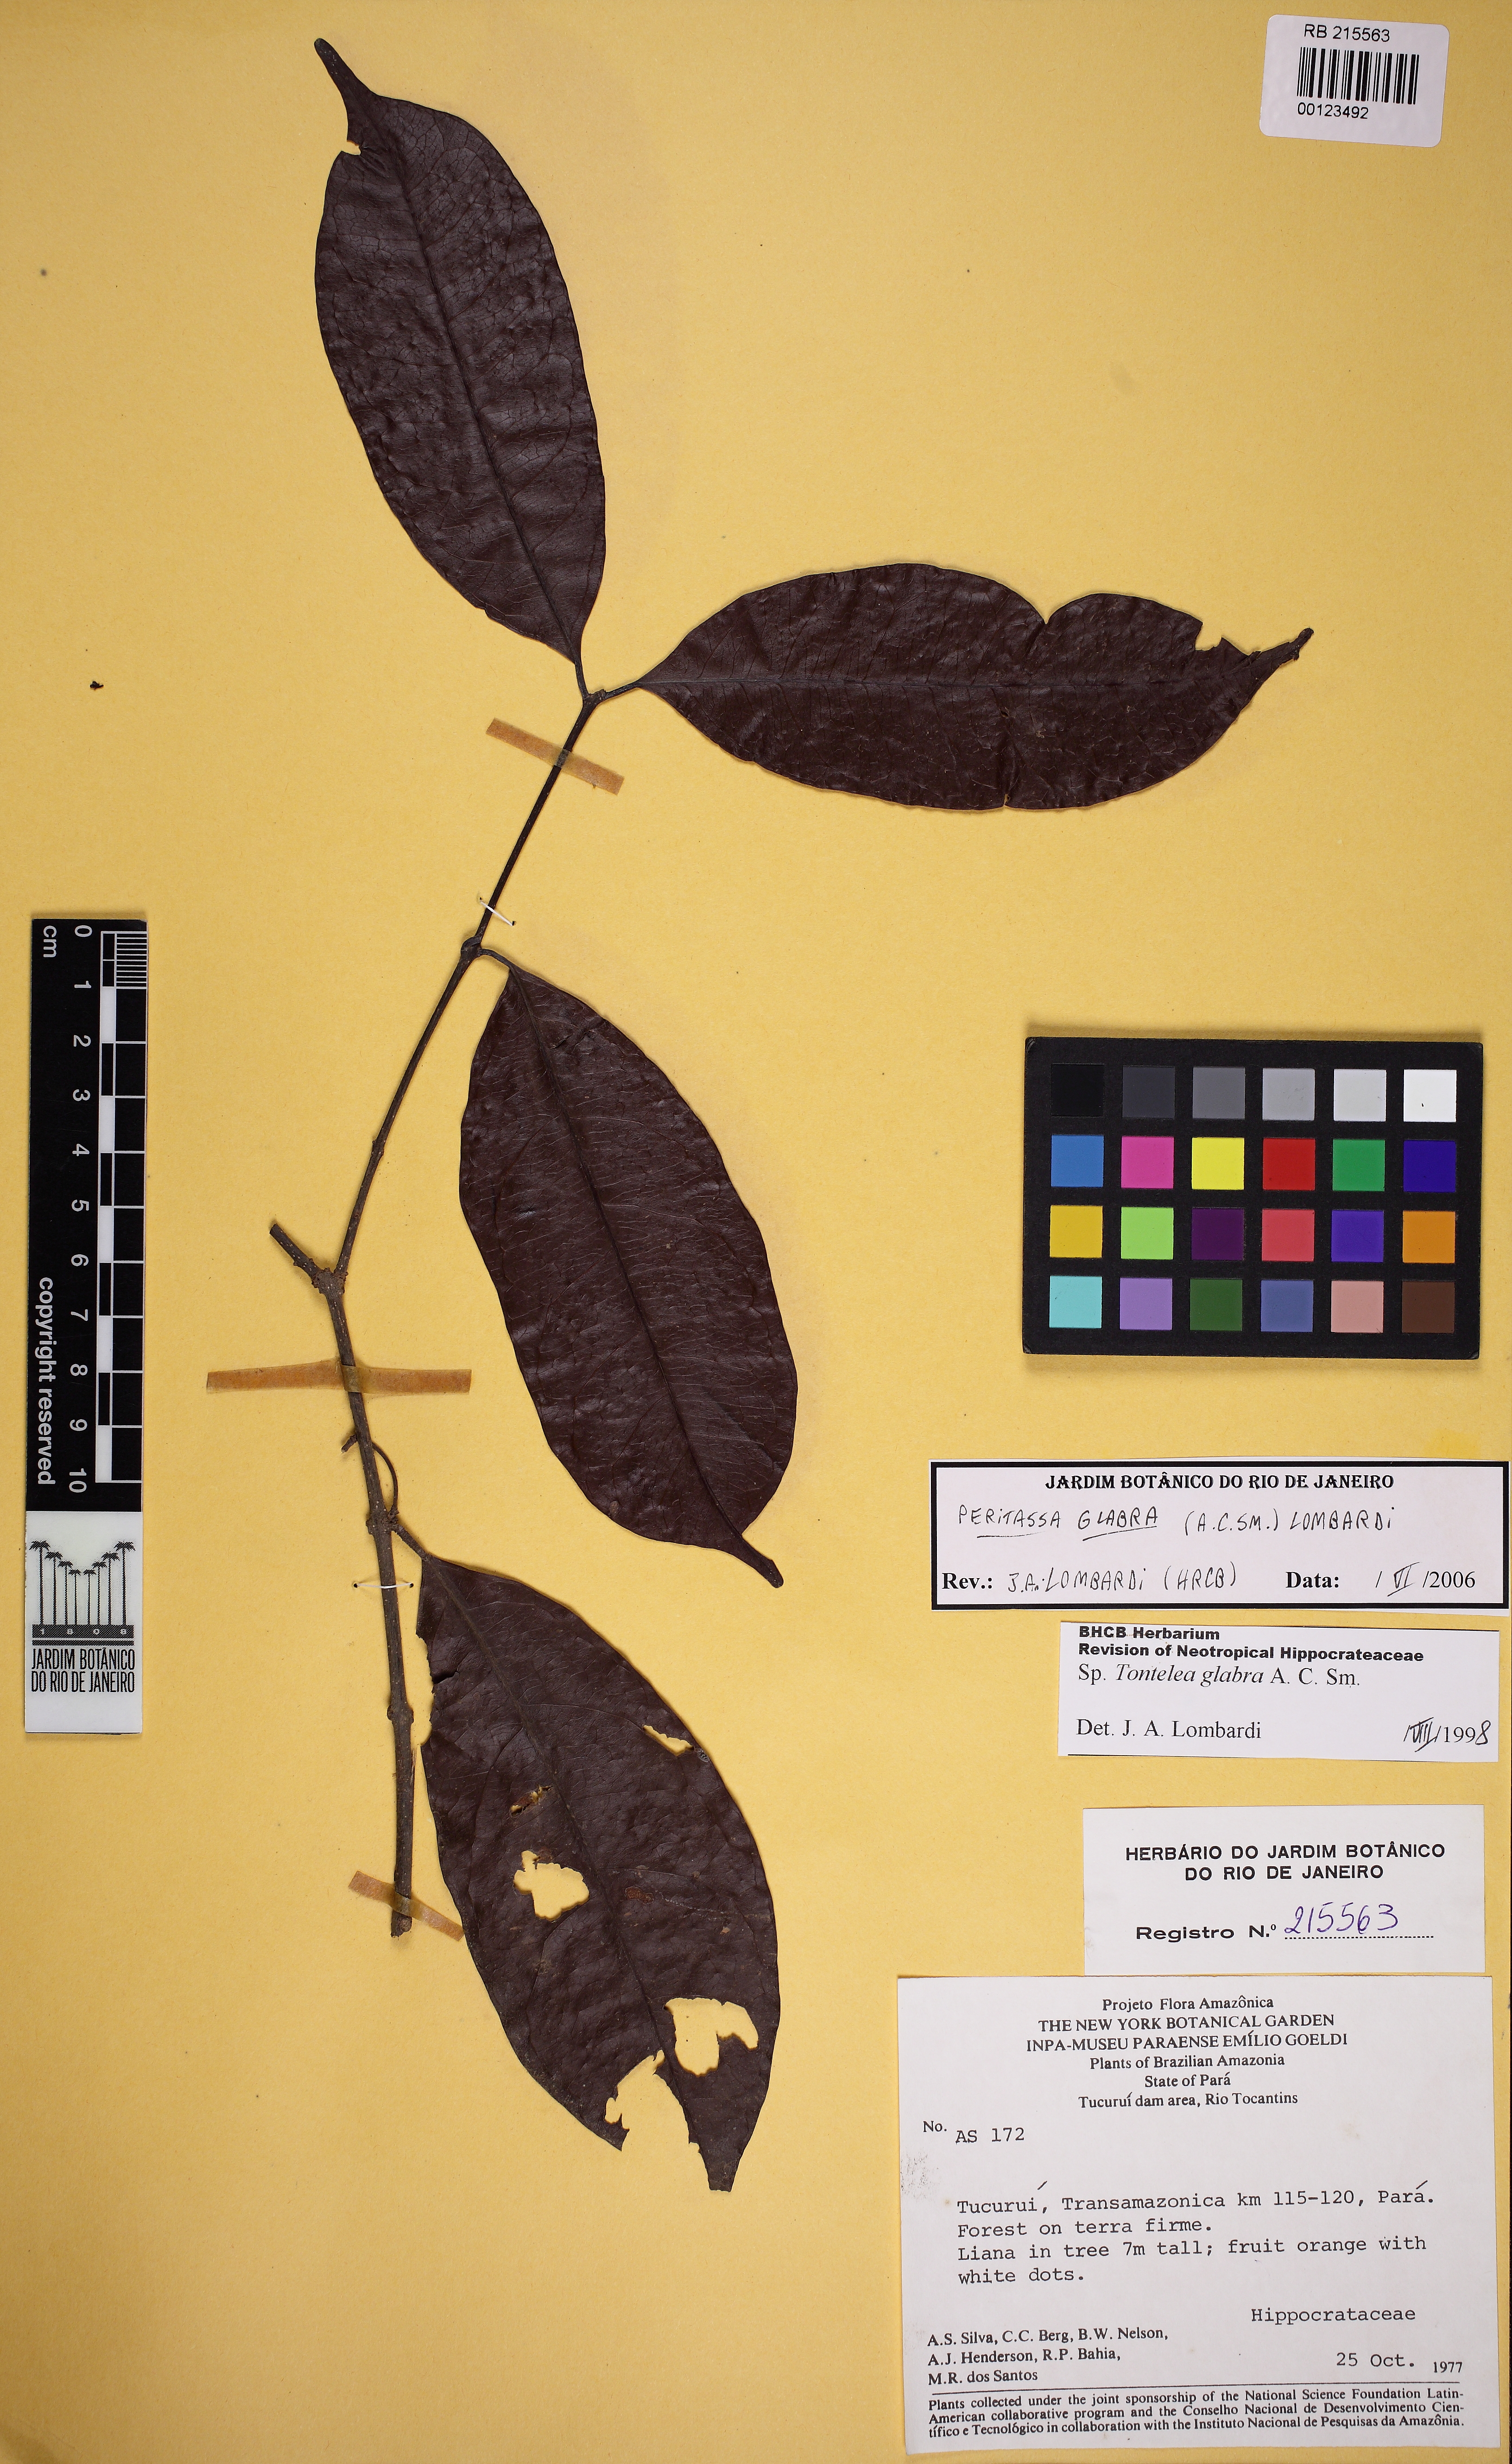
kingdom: Plantae
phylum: Tracheophyta
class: Magnoliopsida
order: Celastrales
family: Celastraceae
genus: Peritassa
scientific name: Peritassa glabra
